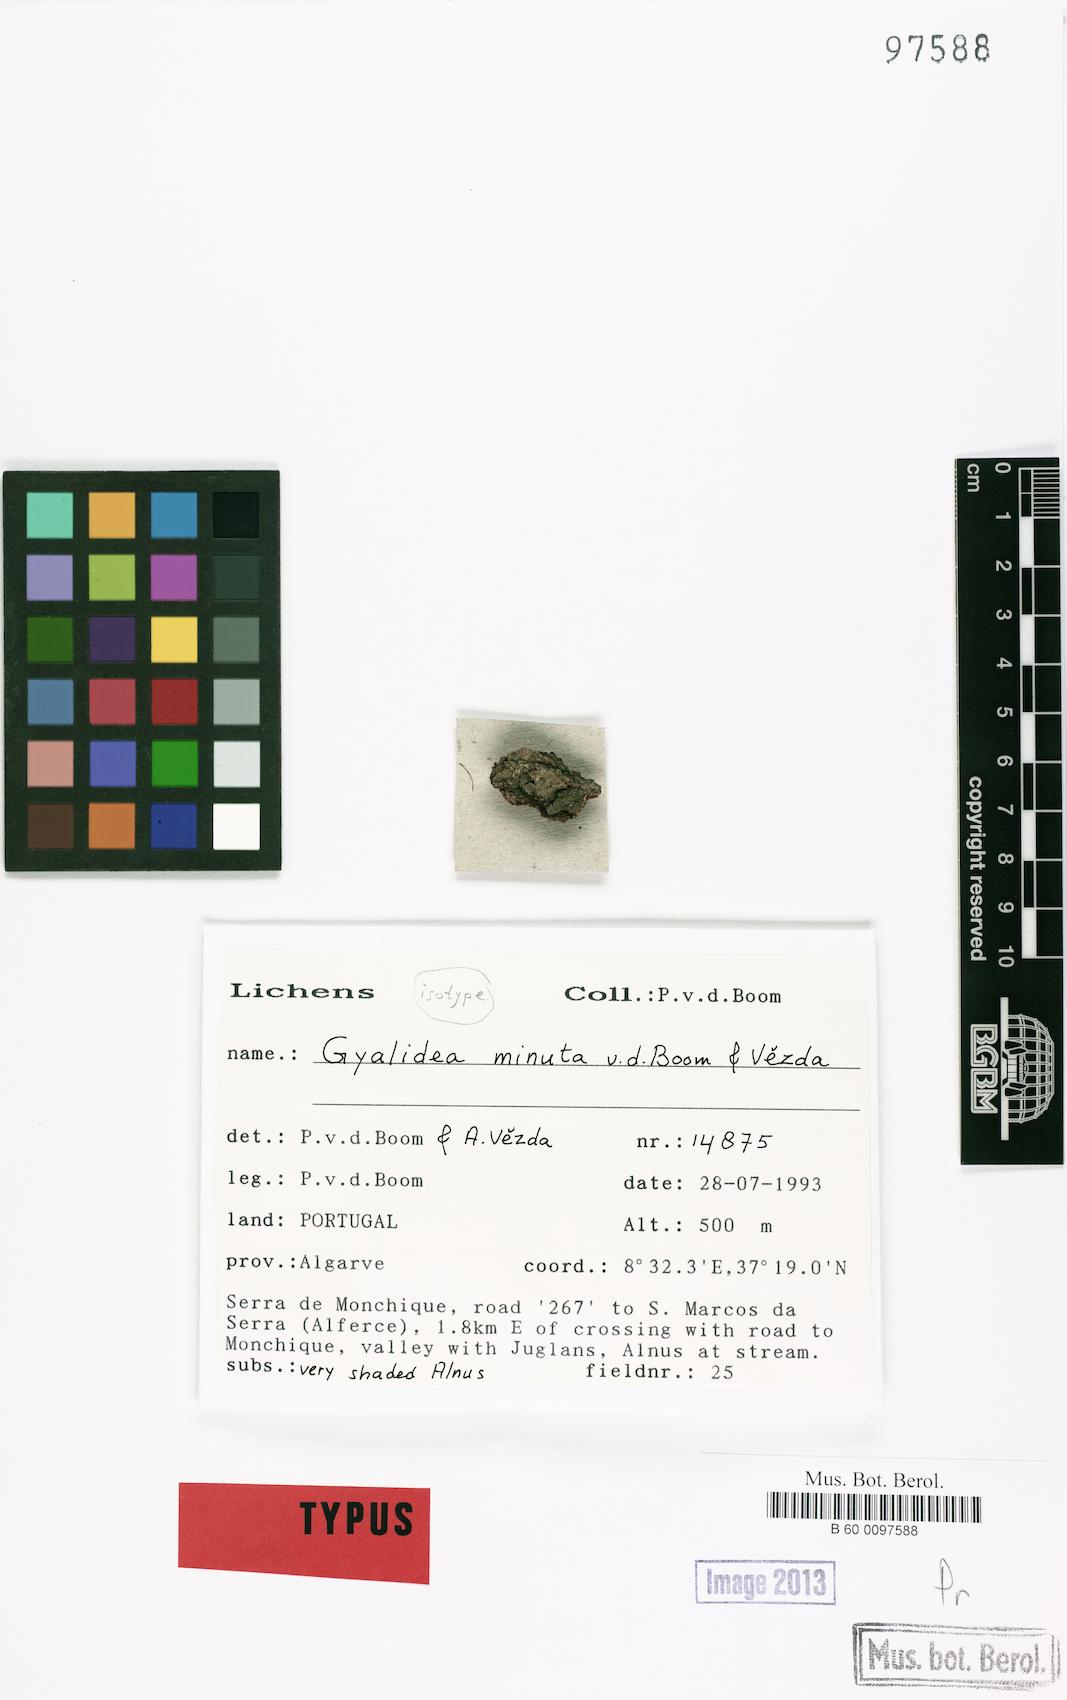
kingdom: Fungi
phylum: Ascomycota
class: Lecanoromycetes
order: Ostropales
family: Gomphillaceae
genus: Gyalidea
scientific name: Gyalidea minuta
